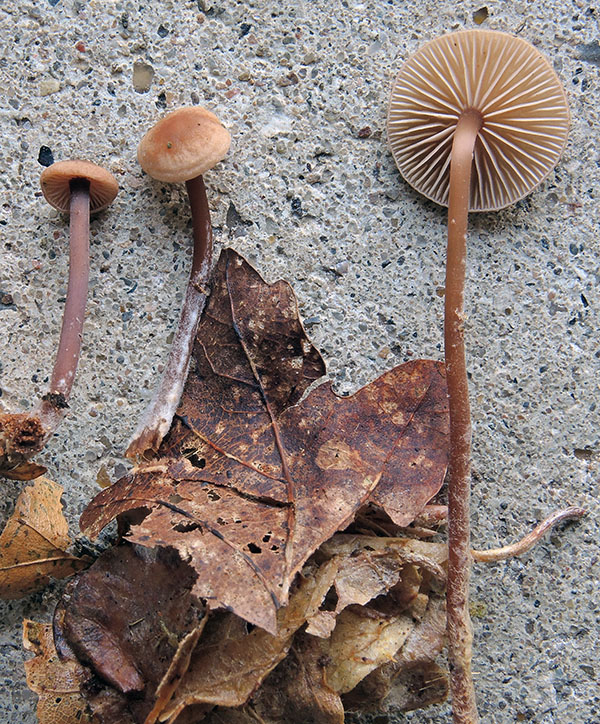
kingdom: Fungi
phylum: Basidiomycota
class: Agaricomycetes
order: Agaricales
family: Omphalotaceae
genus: Gymnopus
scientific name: Gymnopus fagiphilus
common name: bøgeløv-fladhat
